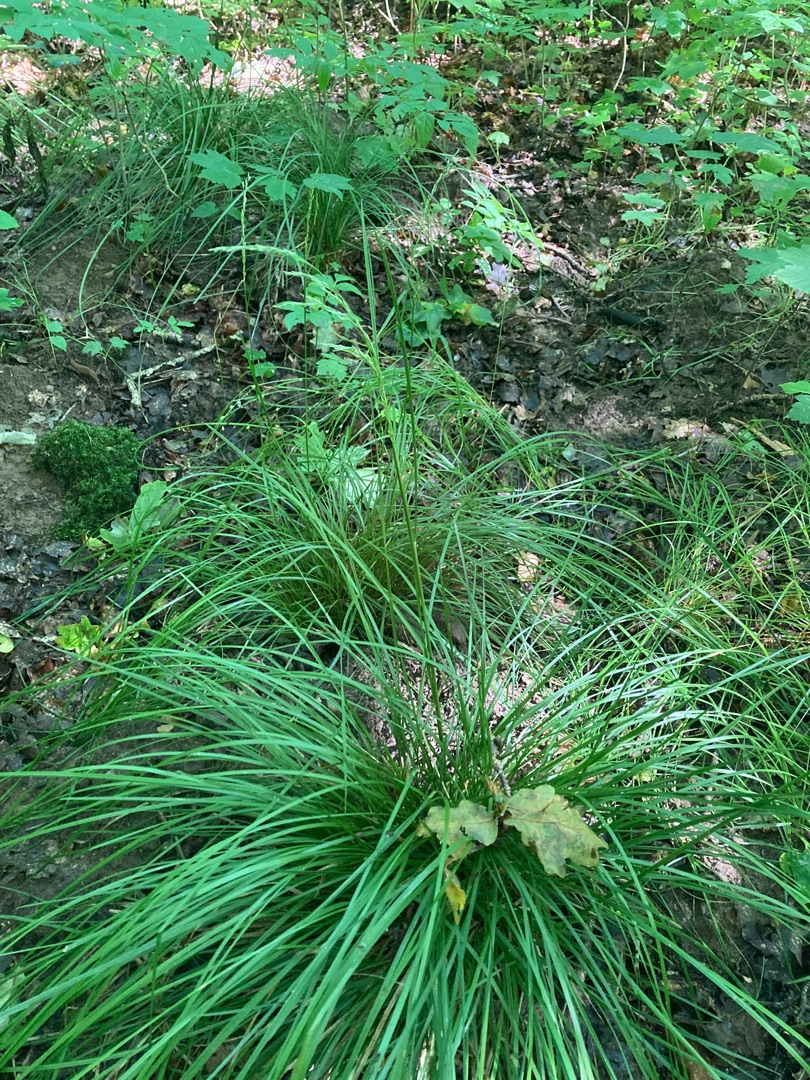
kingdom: Plantae
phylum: Tracheophyta
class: Liliopsida
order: Poales
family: Poaceae
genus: Deschampsia
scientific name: Deschampsia cespitosa
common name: Mose-bunke
